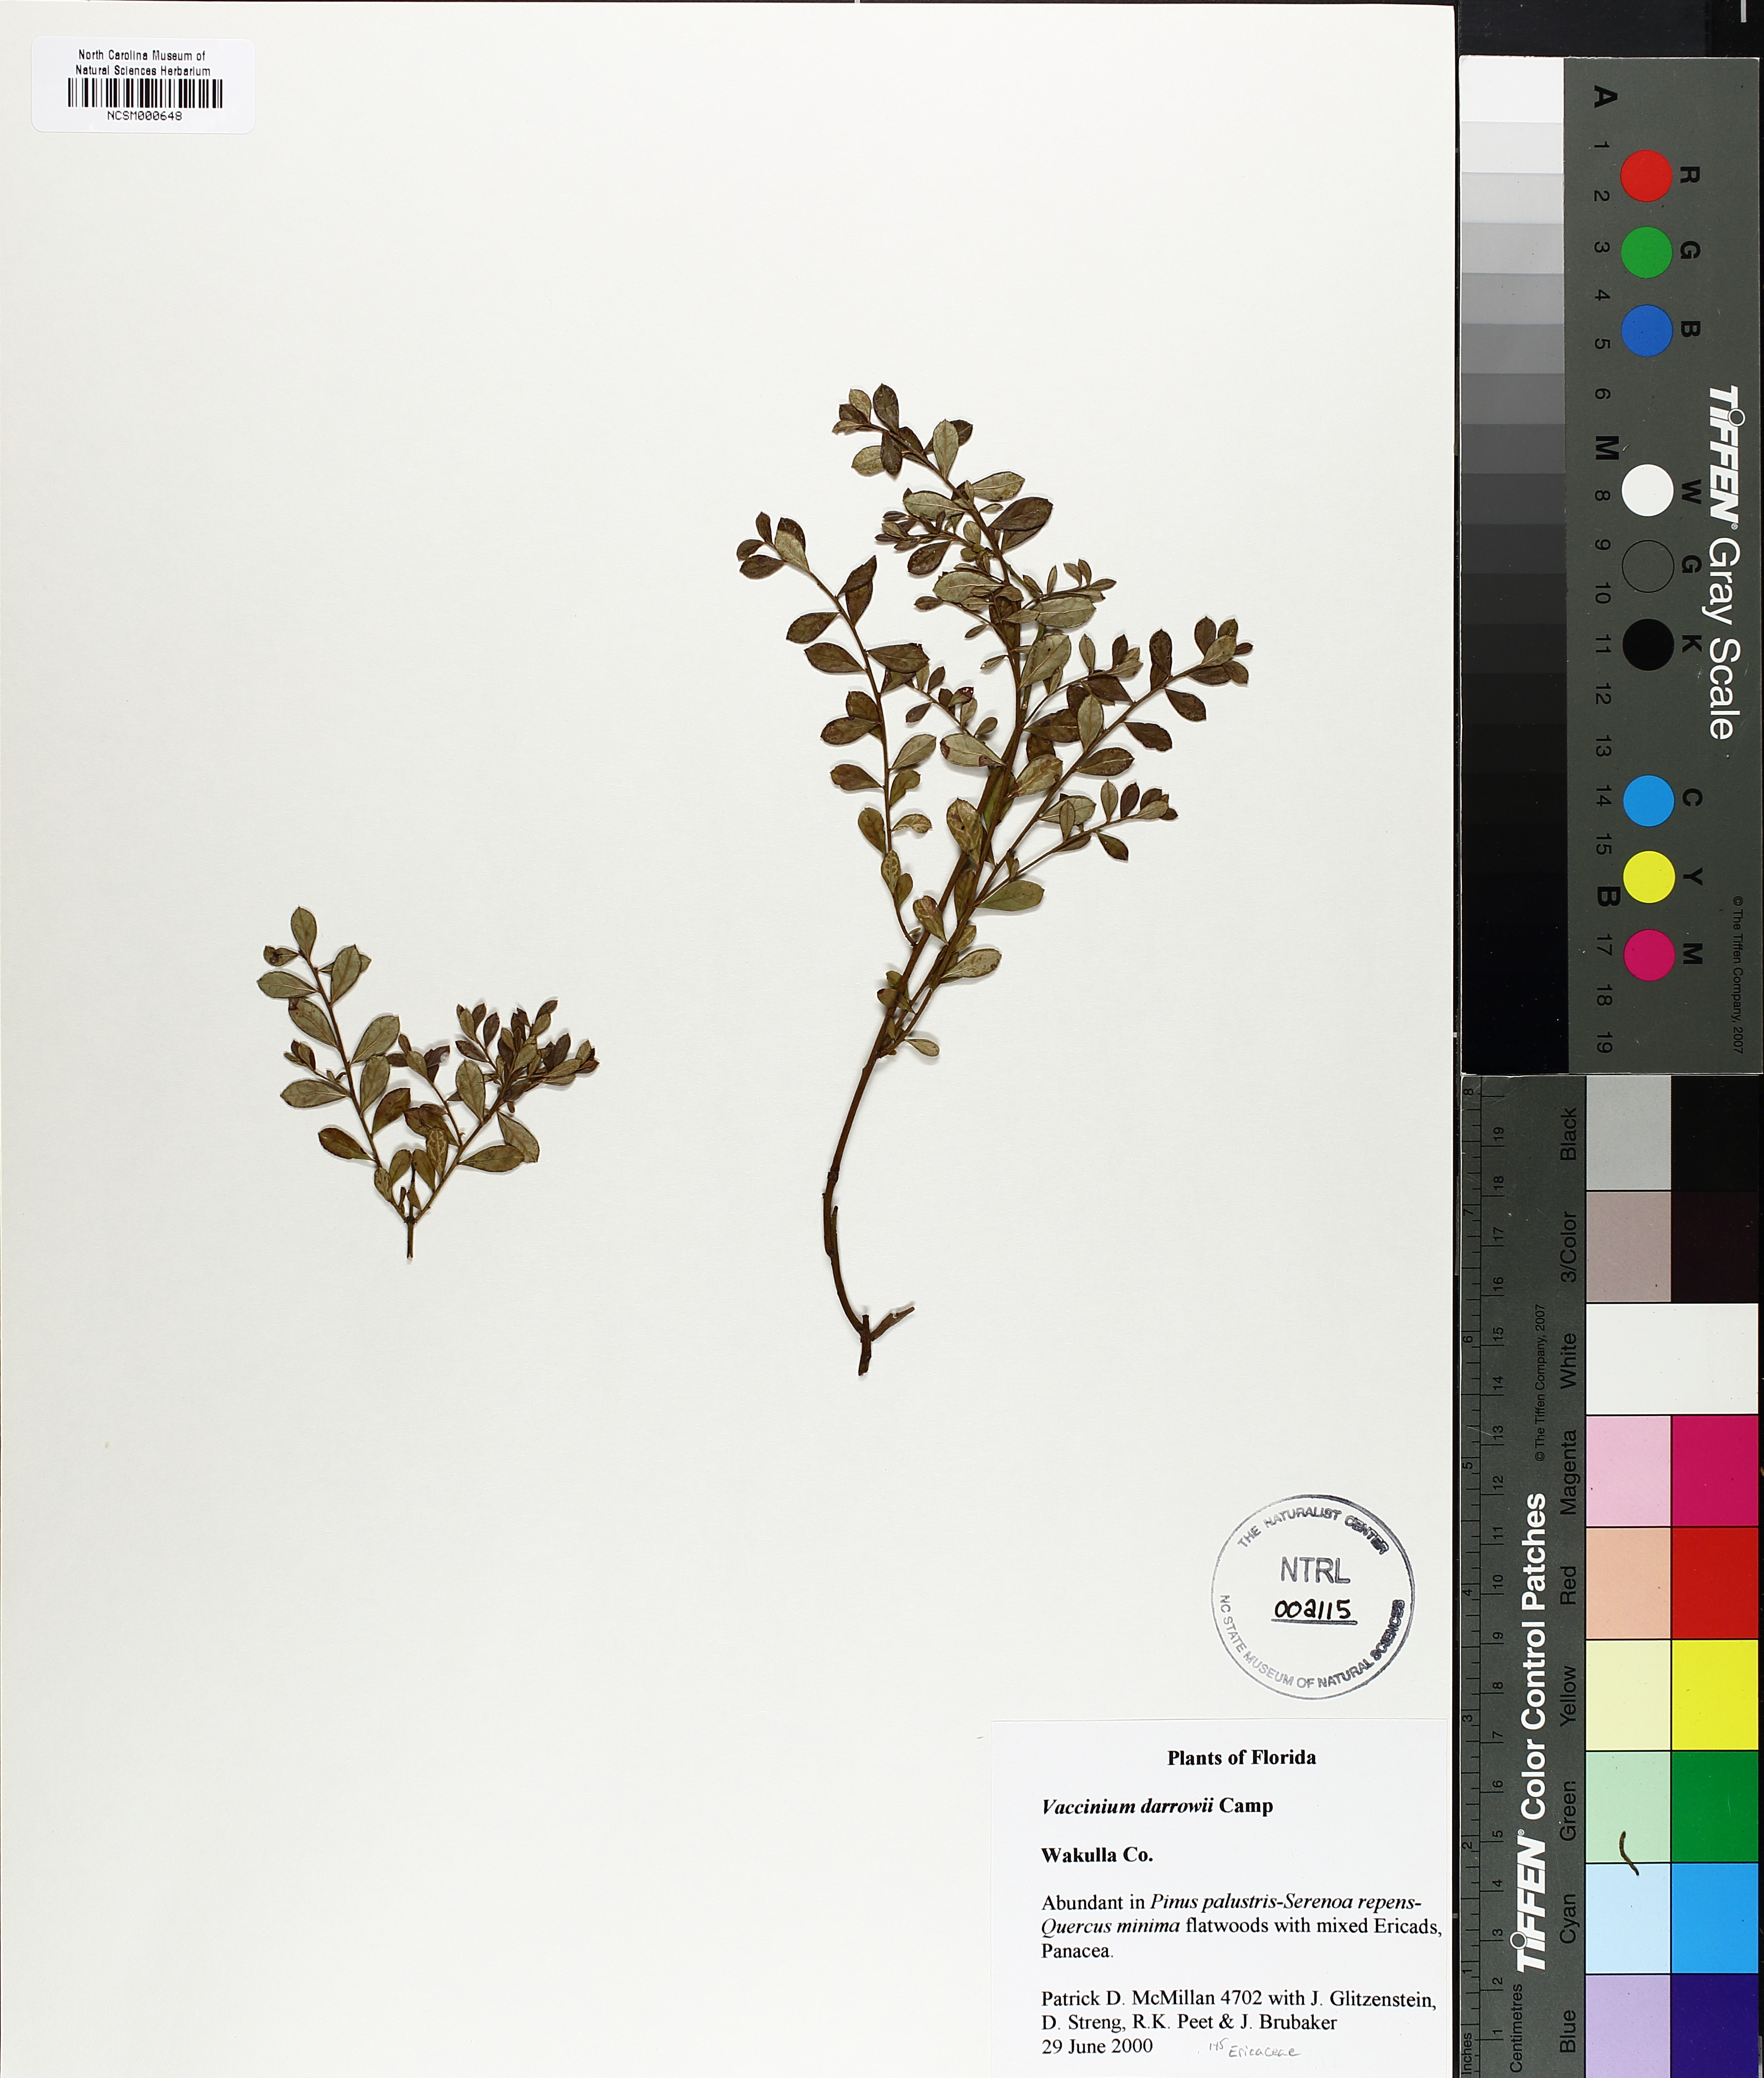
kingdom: Plantae
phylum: Tracheophyta
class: Magnoliopsida
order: Ericales
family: Ericaceae
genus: Vaccinium
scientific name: Vaccinium darrowii
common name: Darrow's blueberry
